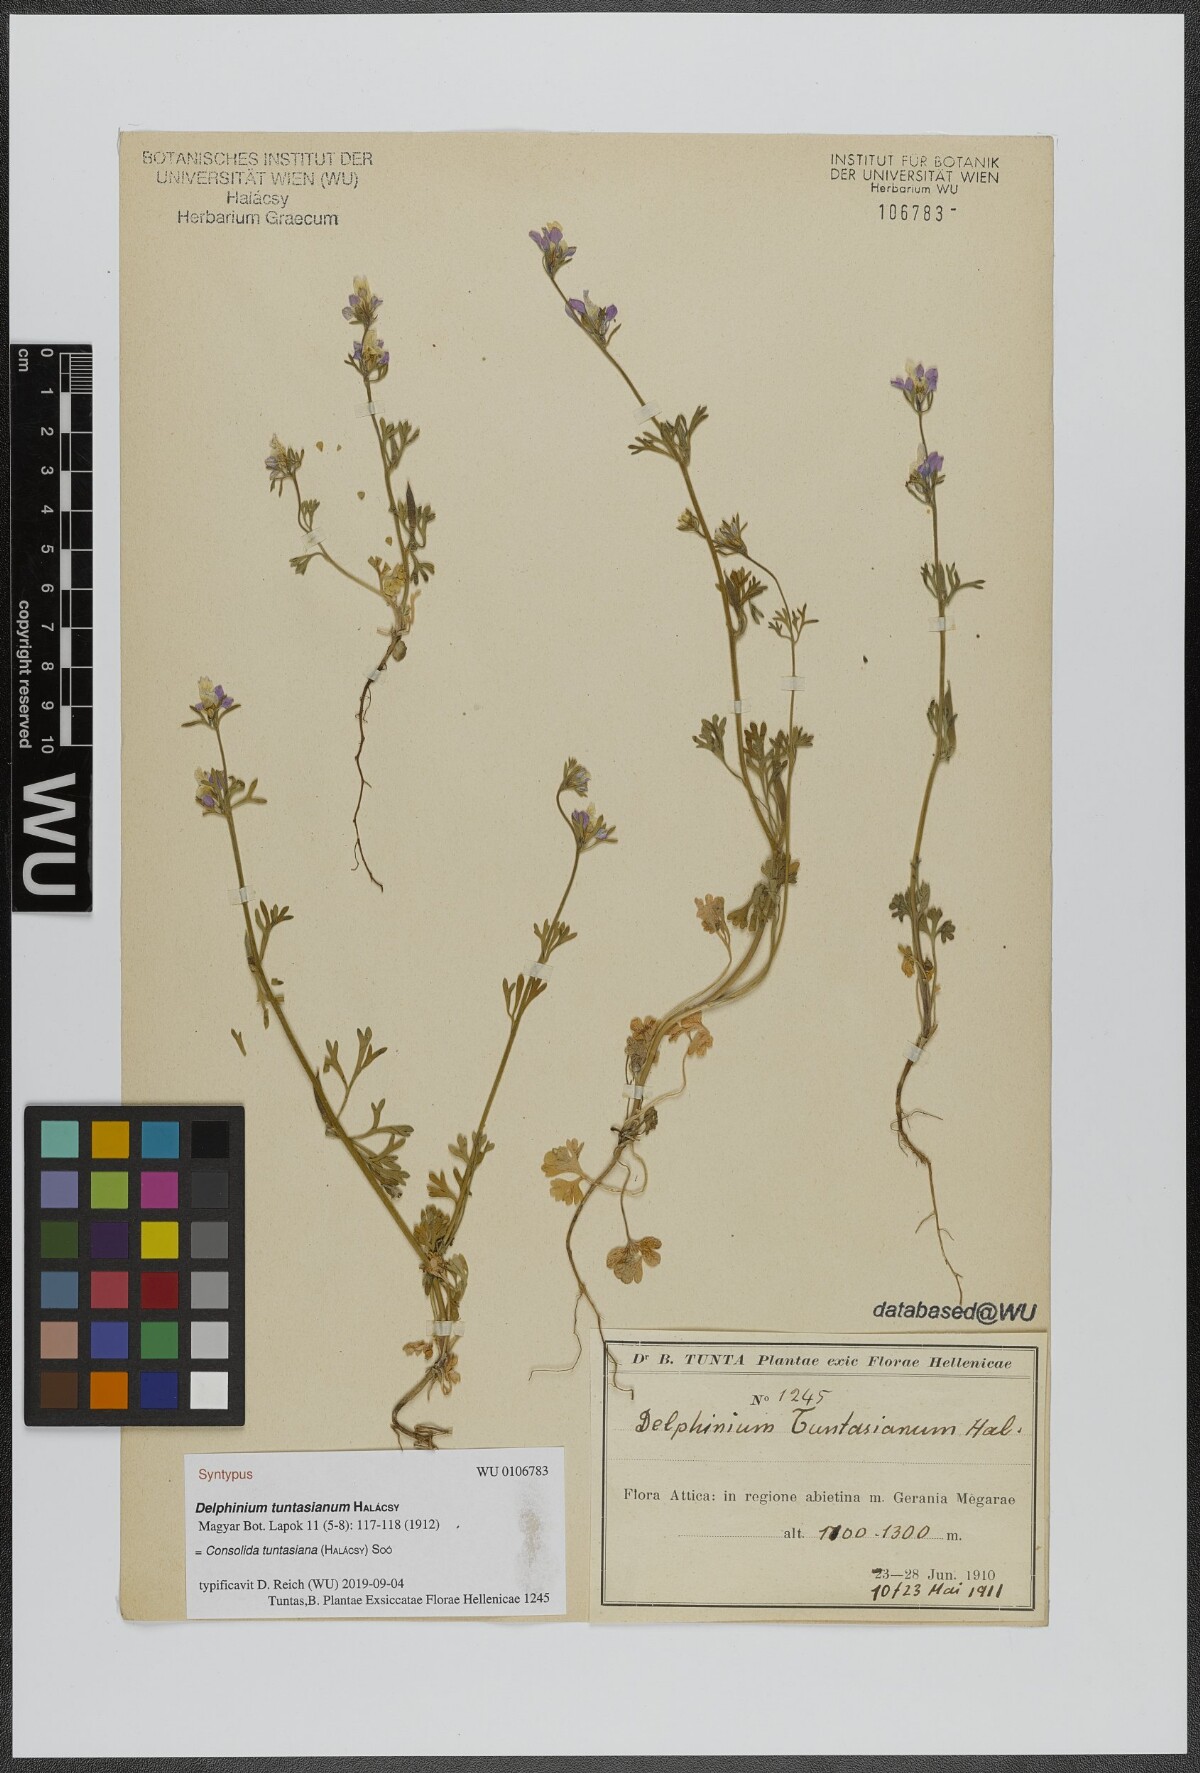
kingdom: Plantae
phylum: Tracheophyta
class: Magnoliopsida
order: Ranunculales
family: Ranunculaceae
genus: Delphinium
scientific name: Delphinium tuntasianum
